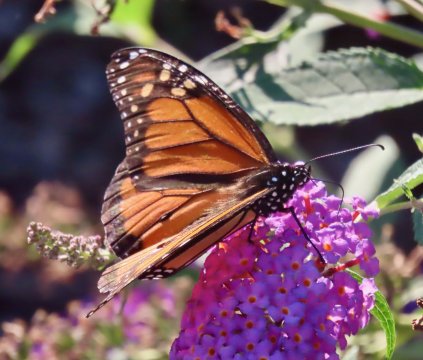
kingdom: Animalia
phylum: Arthropoda
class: Insecta
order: Lepidoptera
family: Nymphalidae
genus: Danaus
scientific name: Danaus plexippus
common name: Monarch
